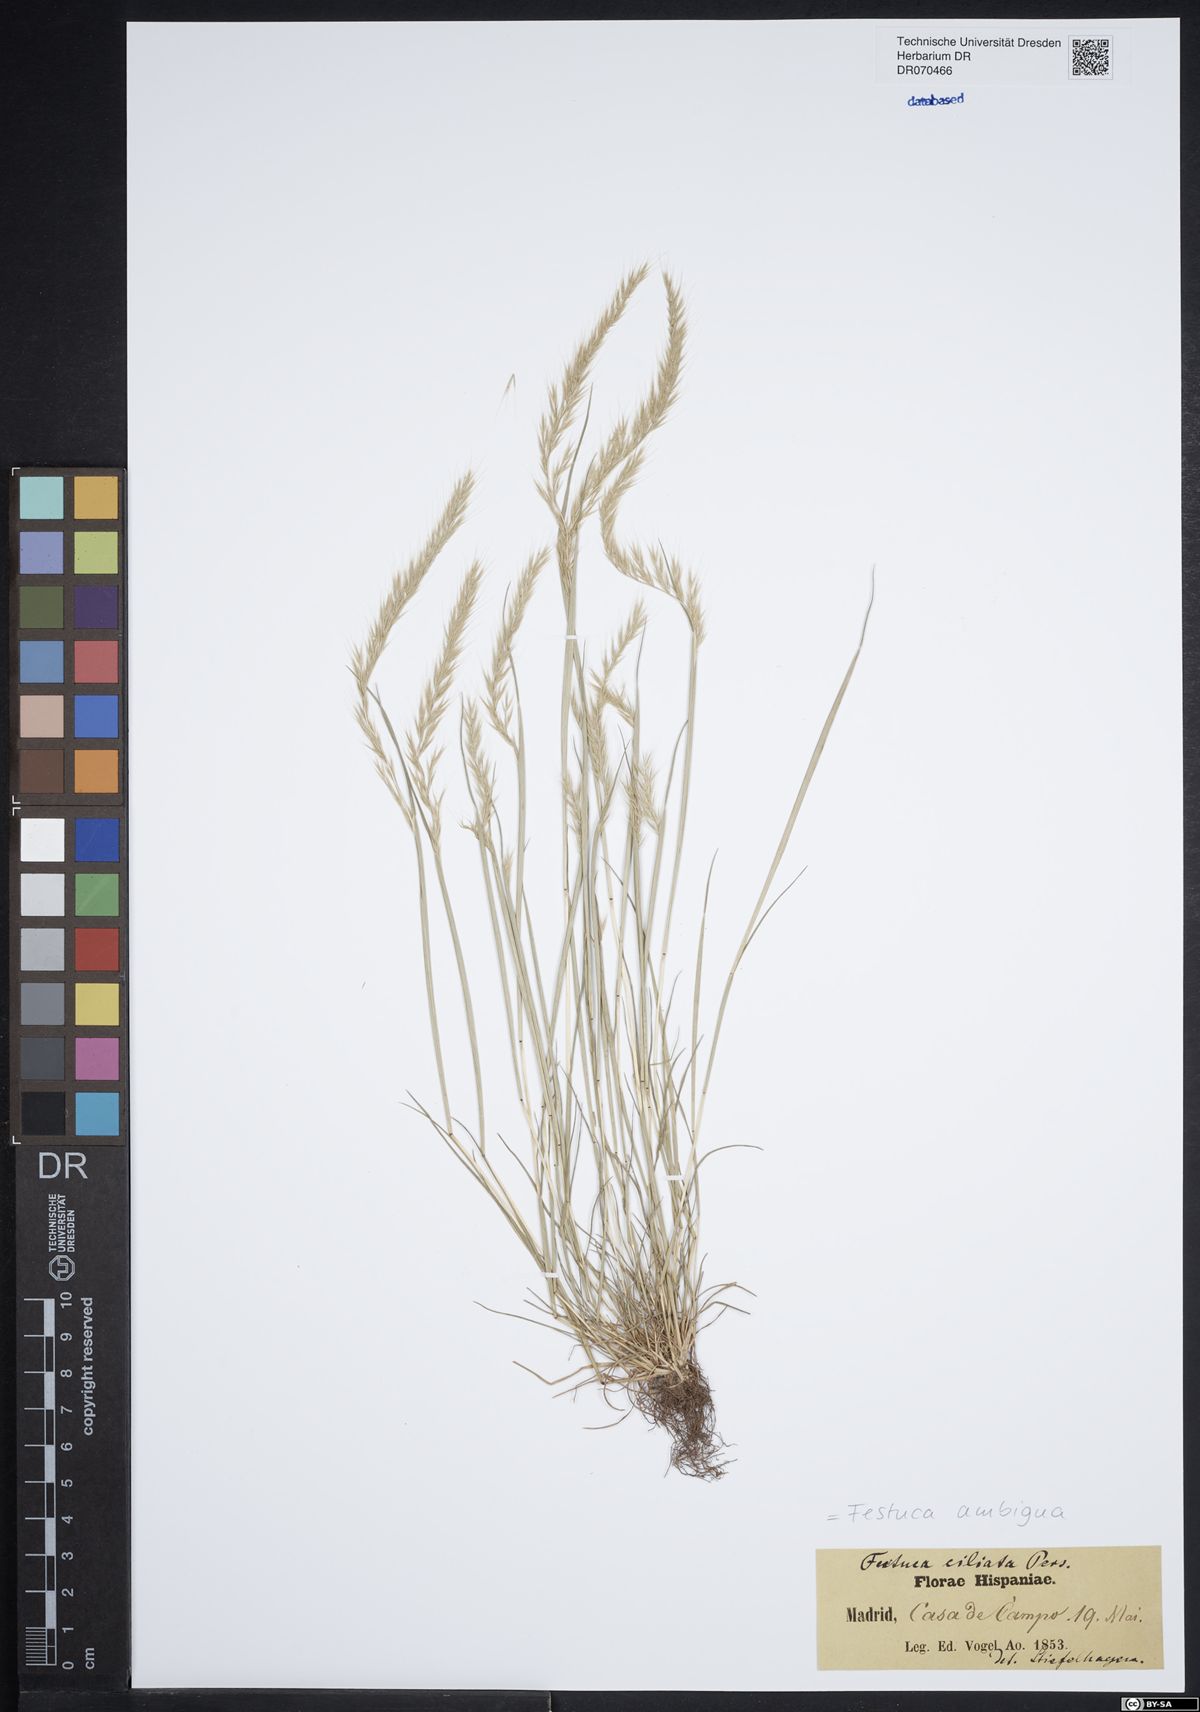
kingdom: Plantae
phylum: Tracheophyta
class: Liliopsida
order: Poales
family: Poaceae
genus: Festuca
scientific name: Festuca ambigua
